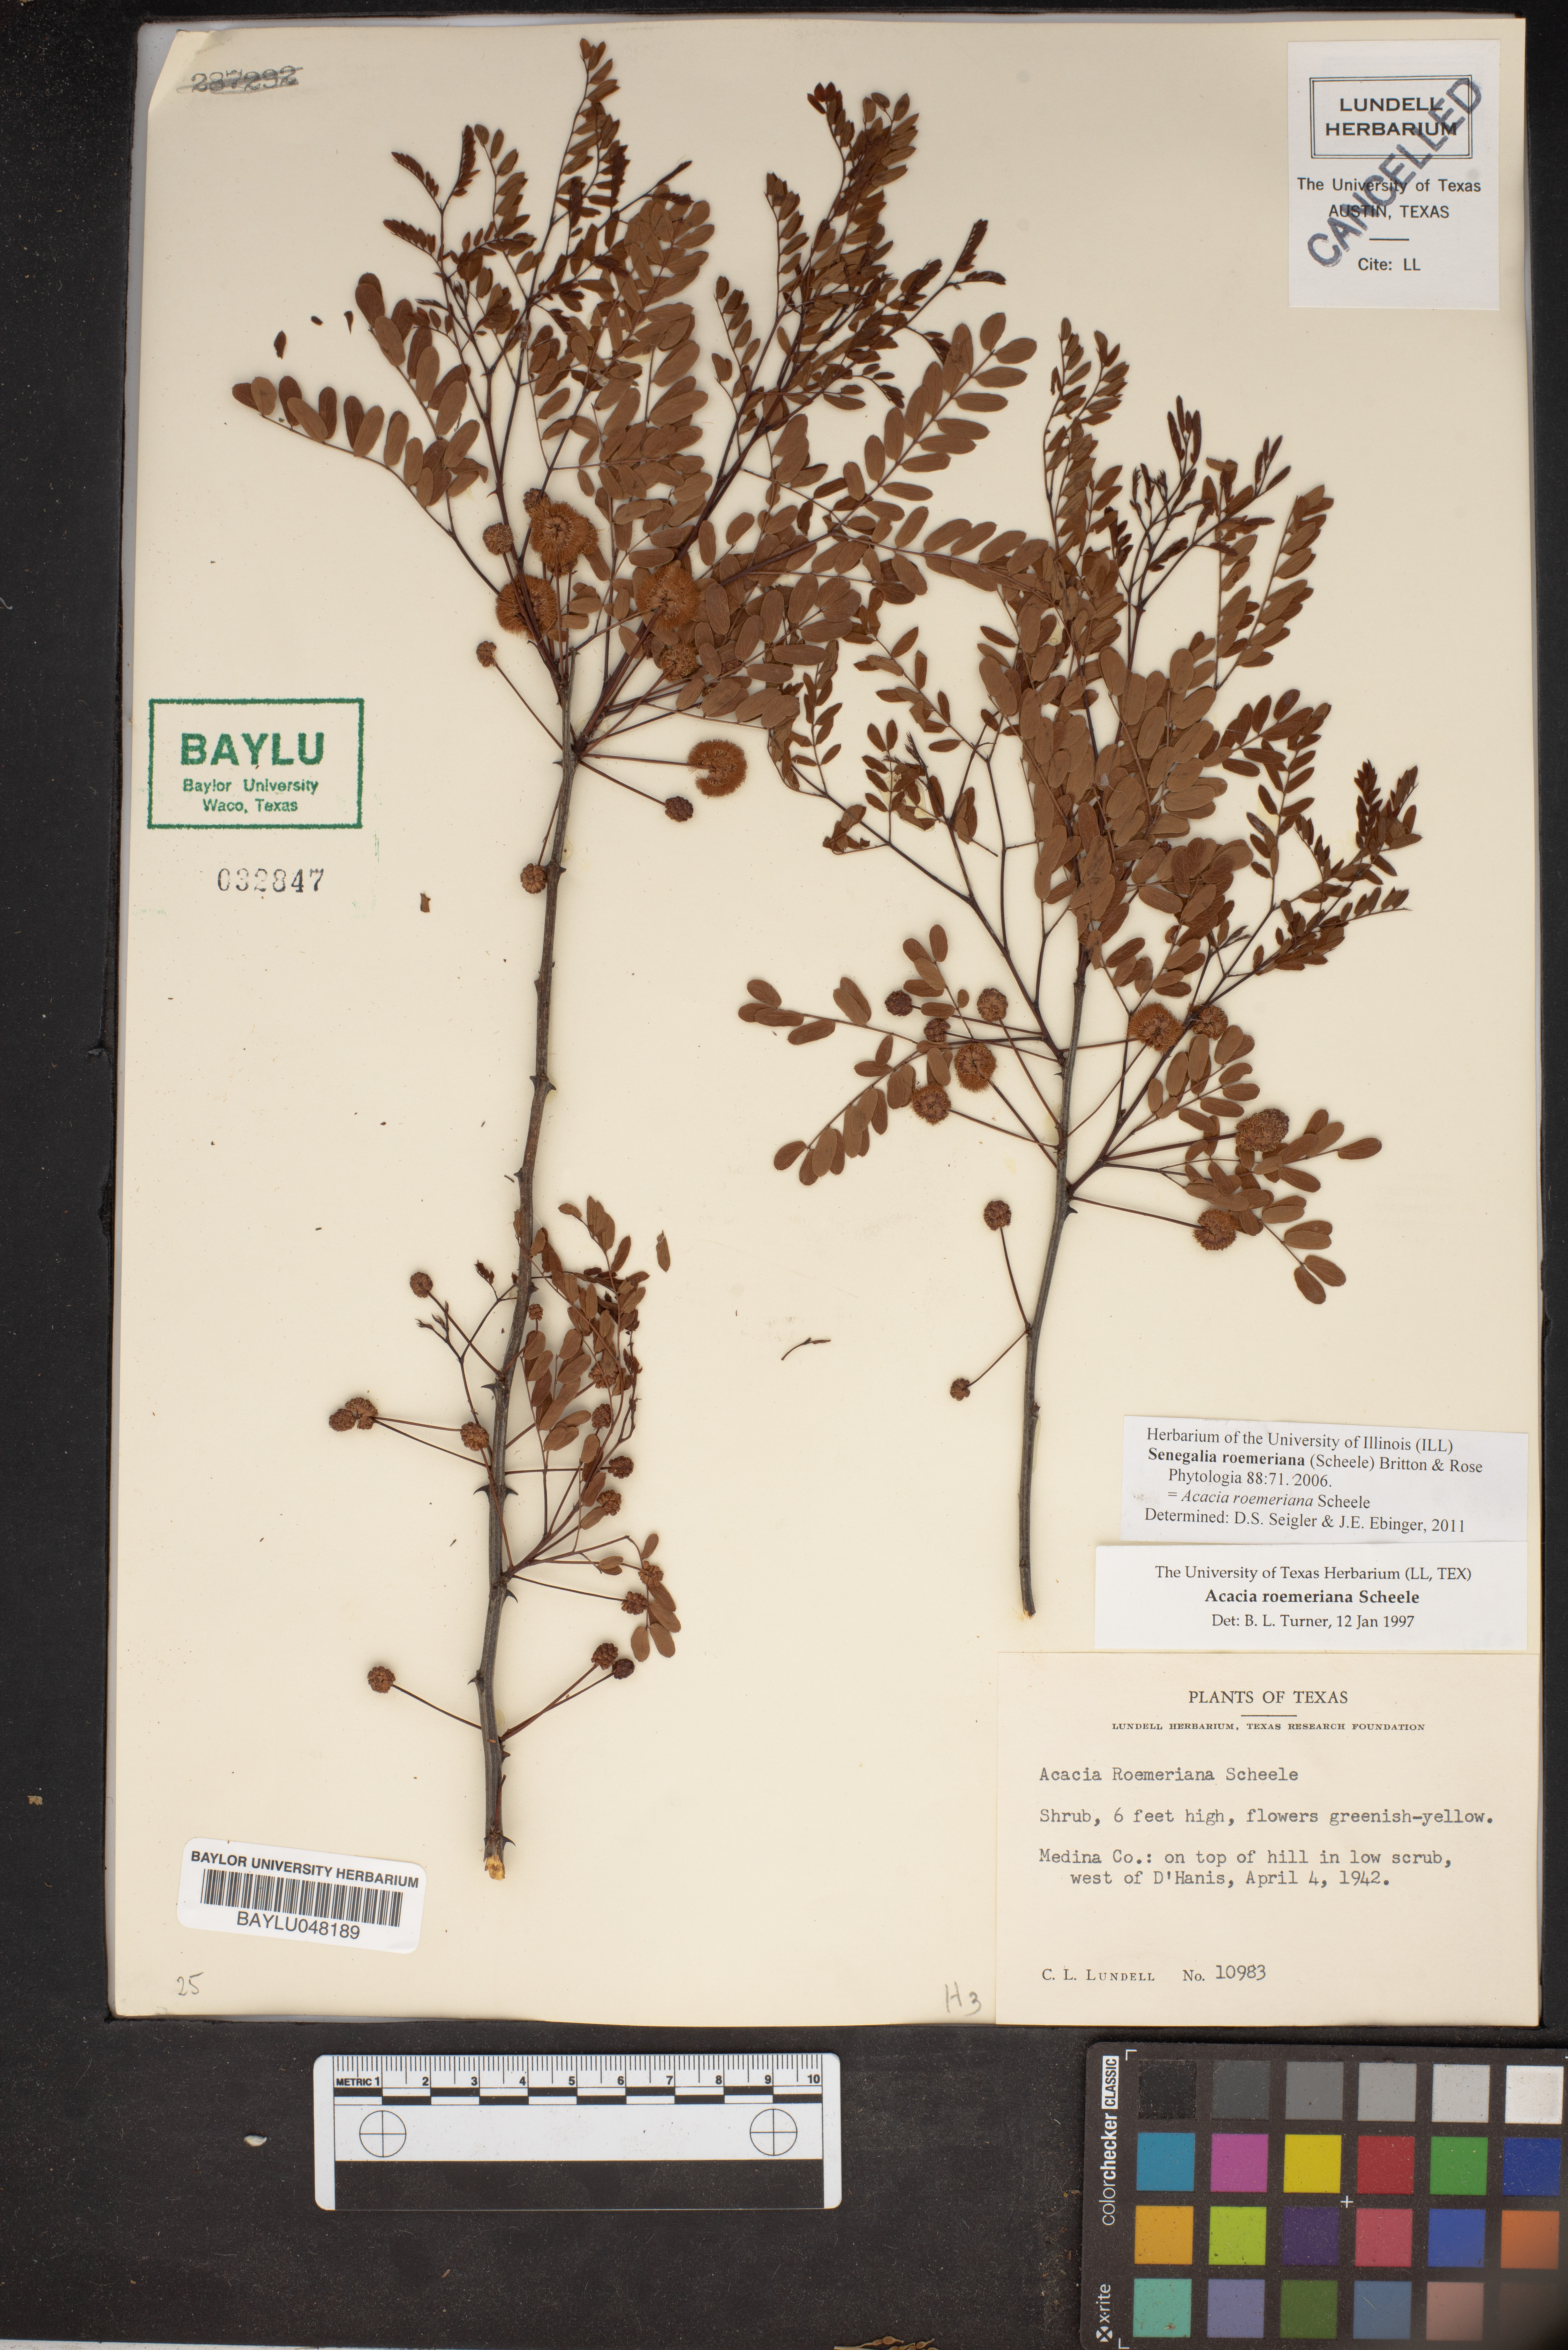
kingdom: Plantae
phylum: Tracheophyta
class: Magnoliopsida
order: Fabales
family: Fabaceae
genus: Senegalia
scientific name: Senegalia roemeriana
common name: Roemer's acacia
